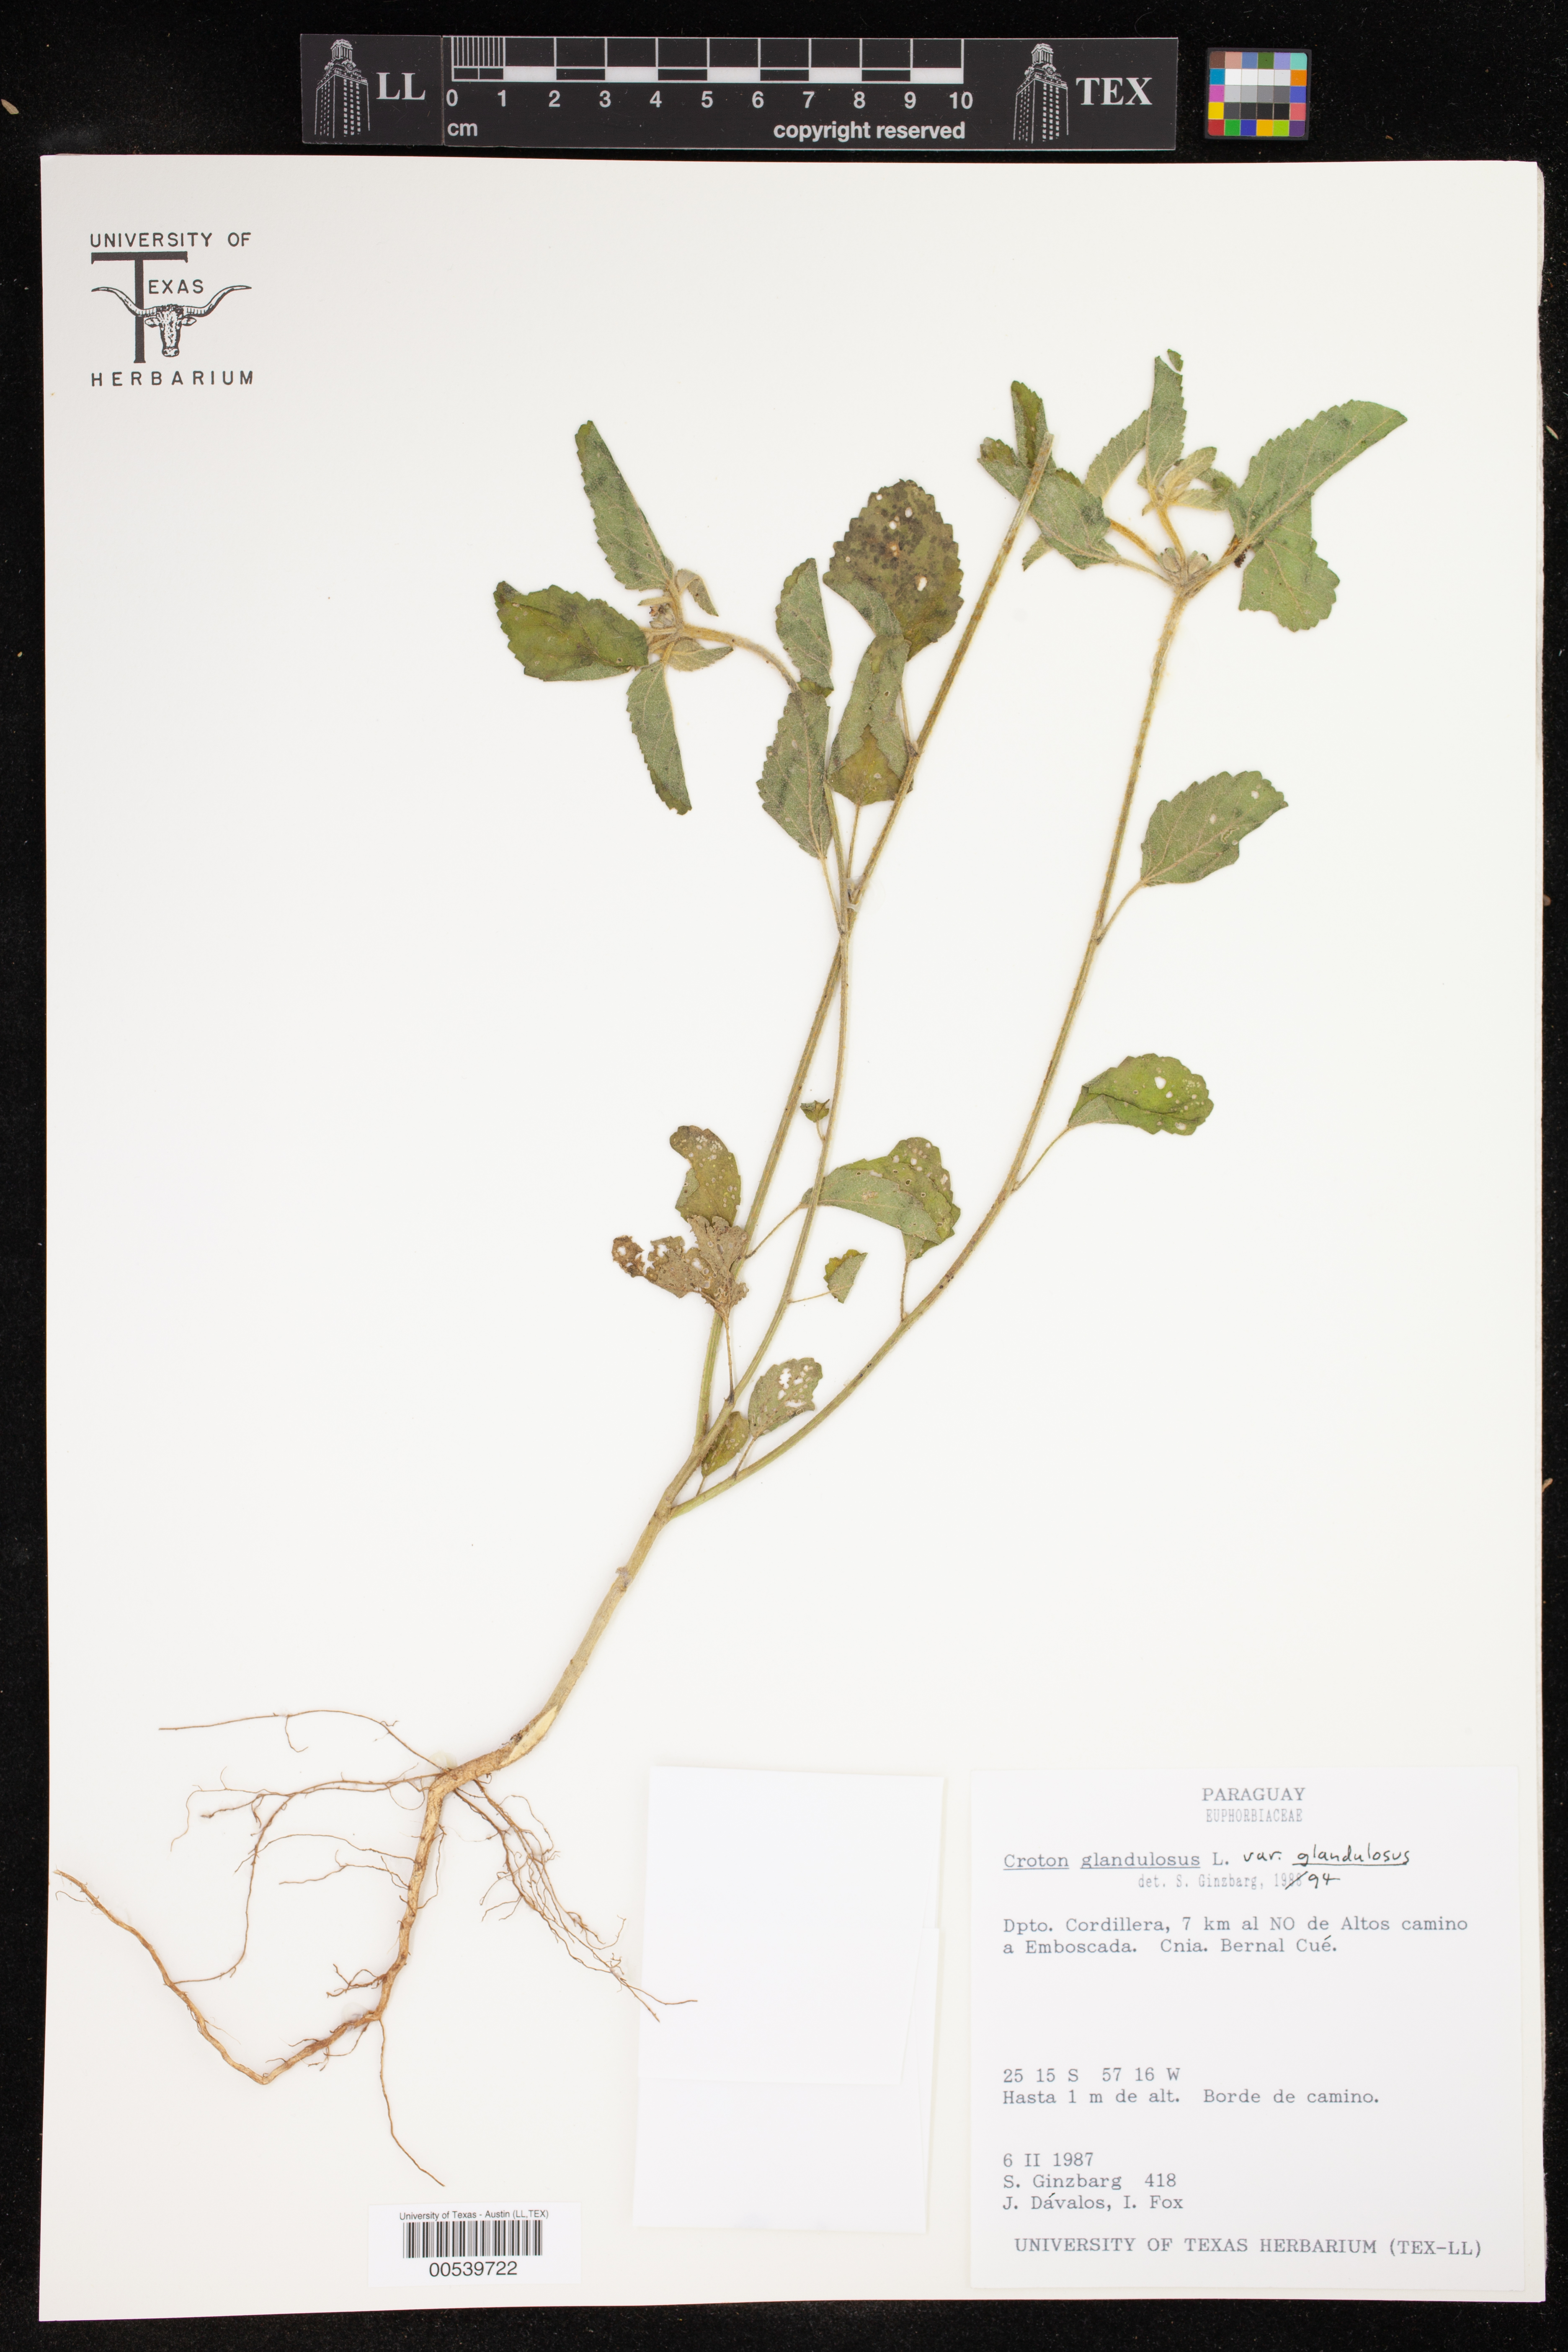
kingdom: Plantae
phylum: Tracheophyta
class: Magnoliopsida
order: Malpighiales
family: Euphorbiaceae
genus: Croton
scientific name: Croton glandulosus
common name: Tropic croton
